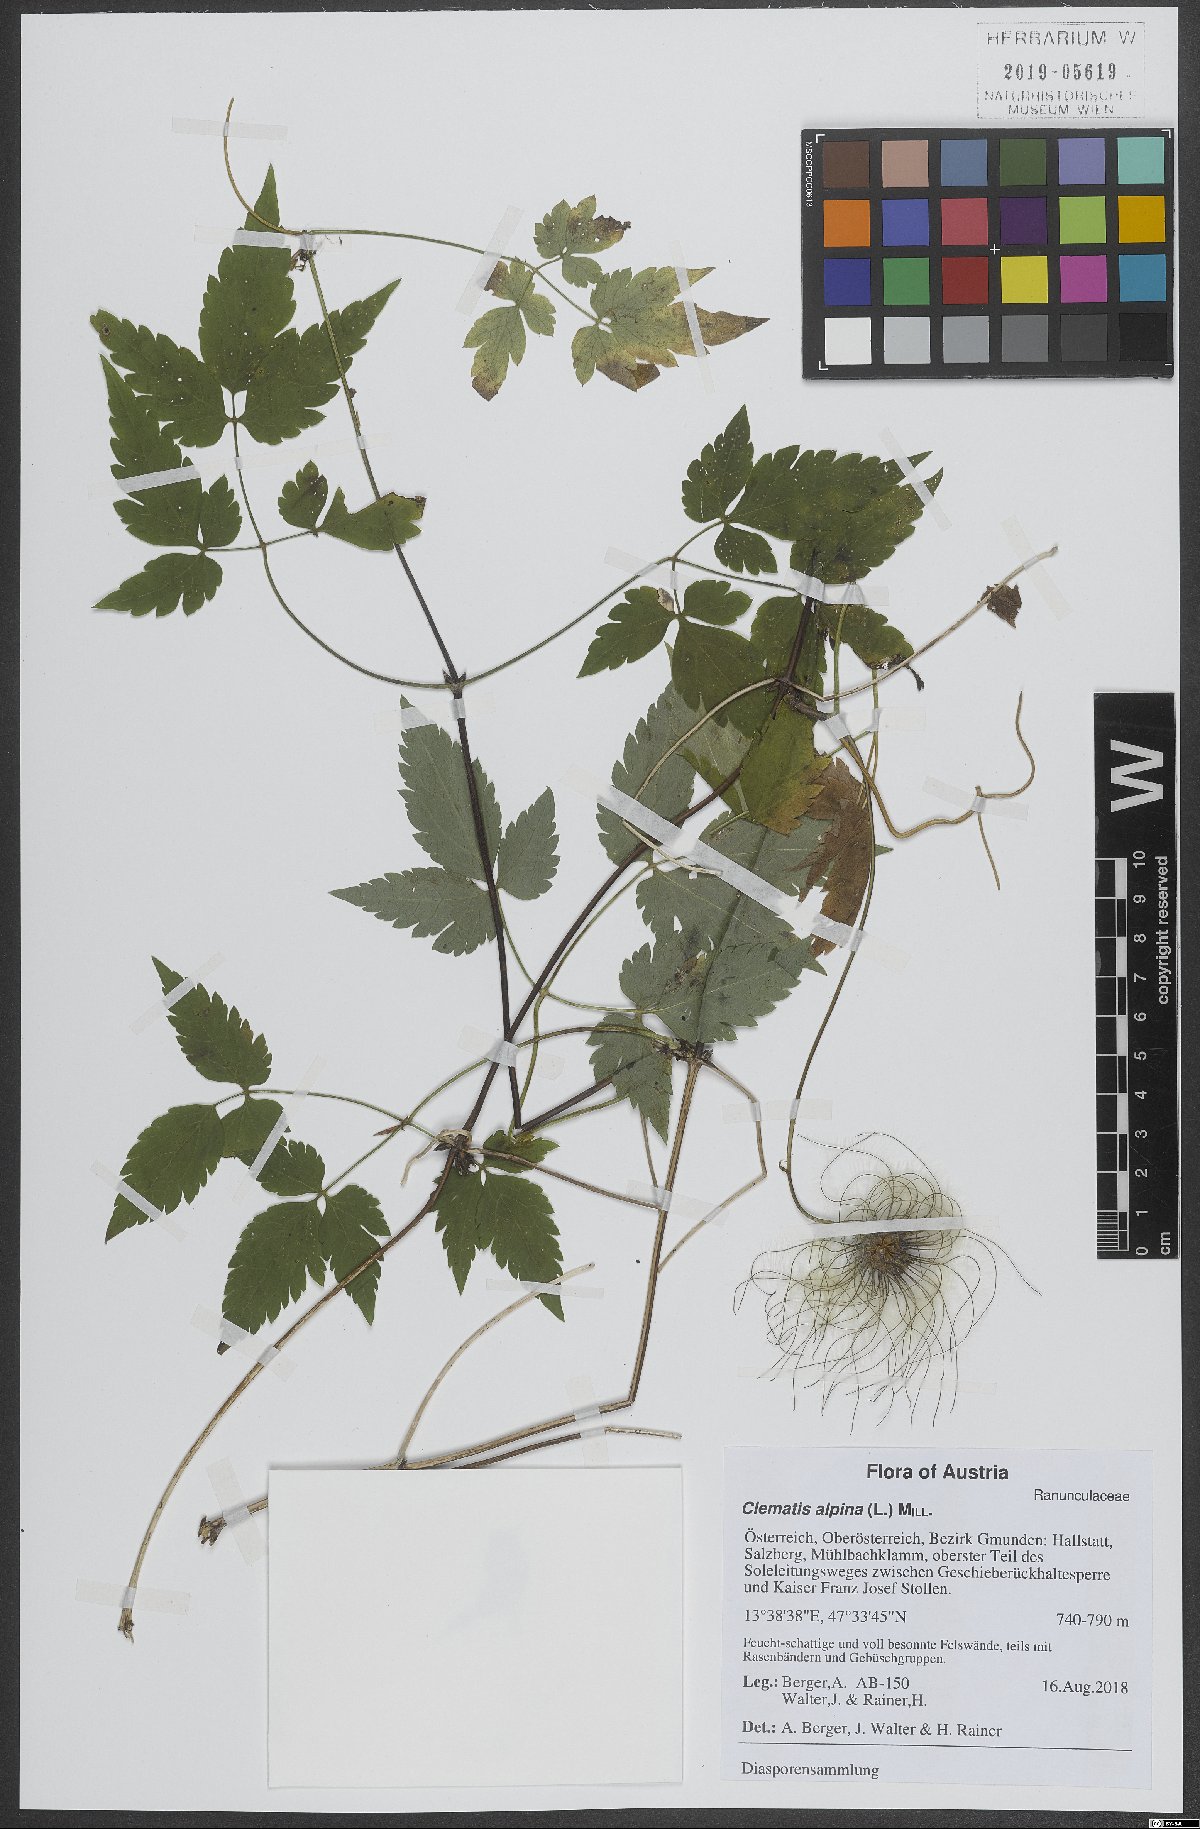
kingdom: Plantae
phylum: Tracheophyta
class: Magnoliopsida
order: Ranunculales
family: Ranunculaceae
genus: Clematis
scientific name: Clematis alpina
